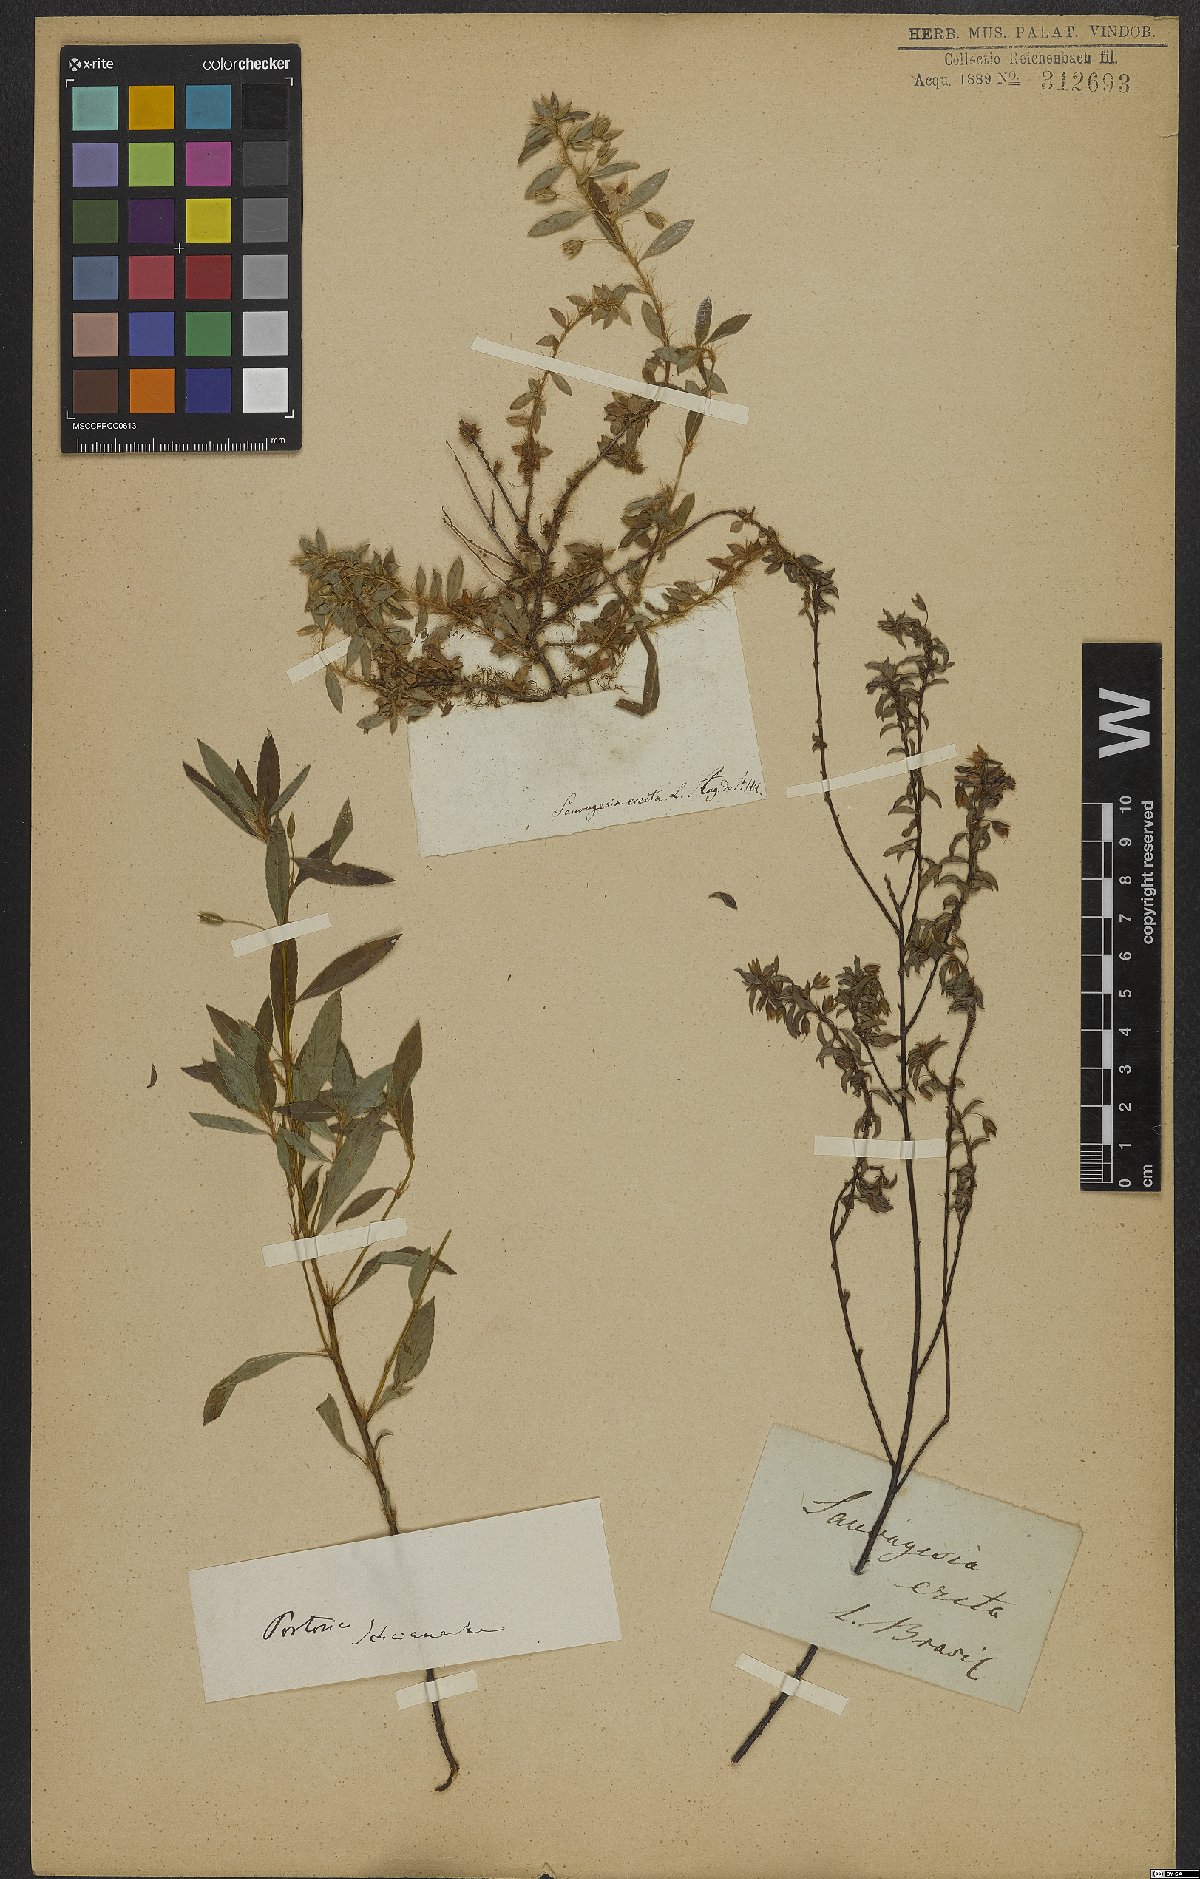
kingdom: Plantae
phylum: Tracheophyta
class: Magnoliopsida
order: Malpighiales
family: Ochnaceae
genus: Sauvagesia
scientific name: Sauvagesia erecta
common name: Creole tea
